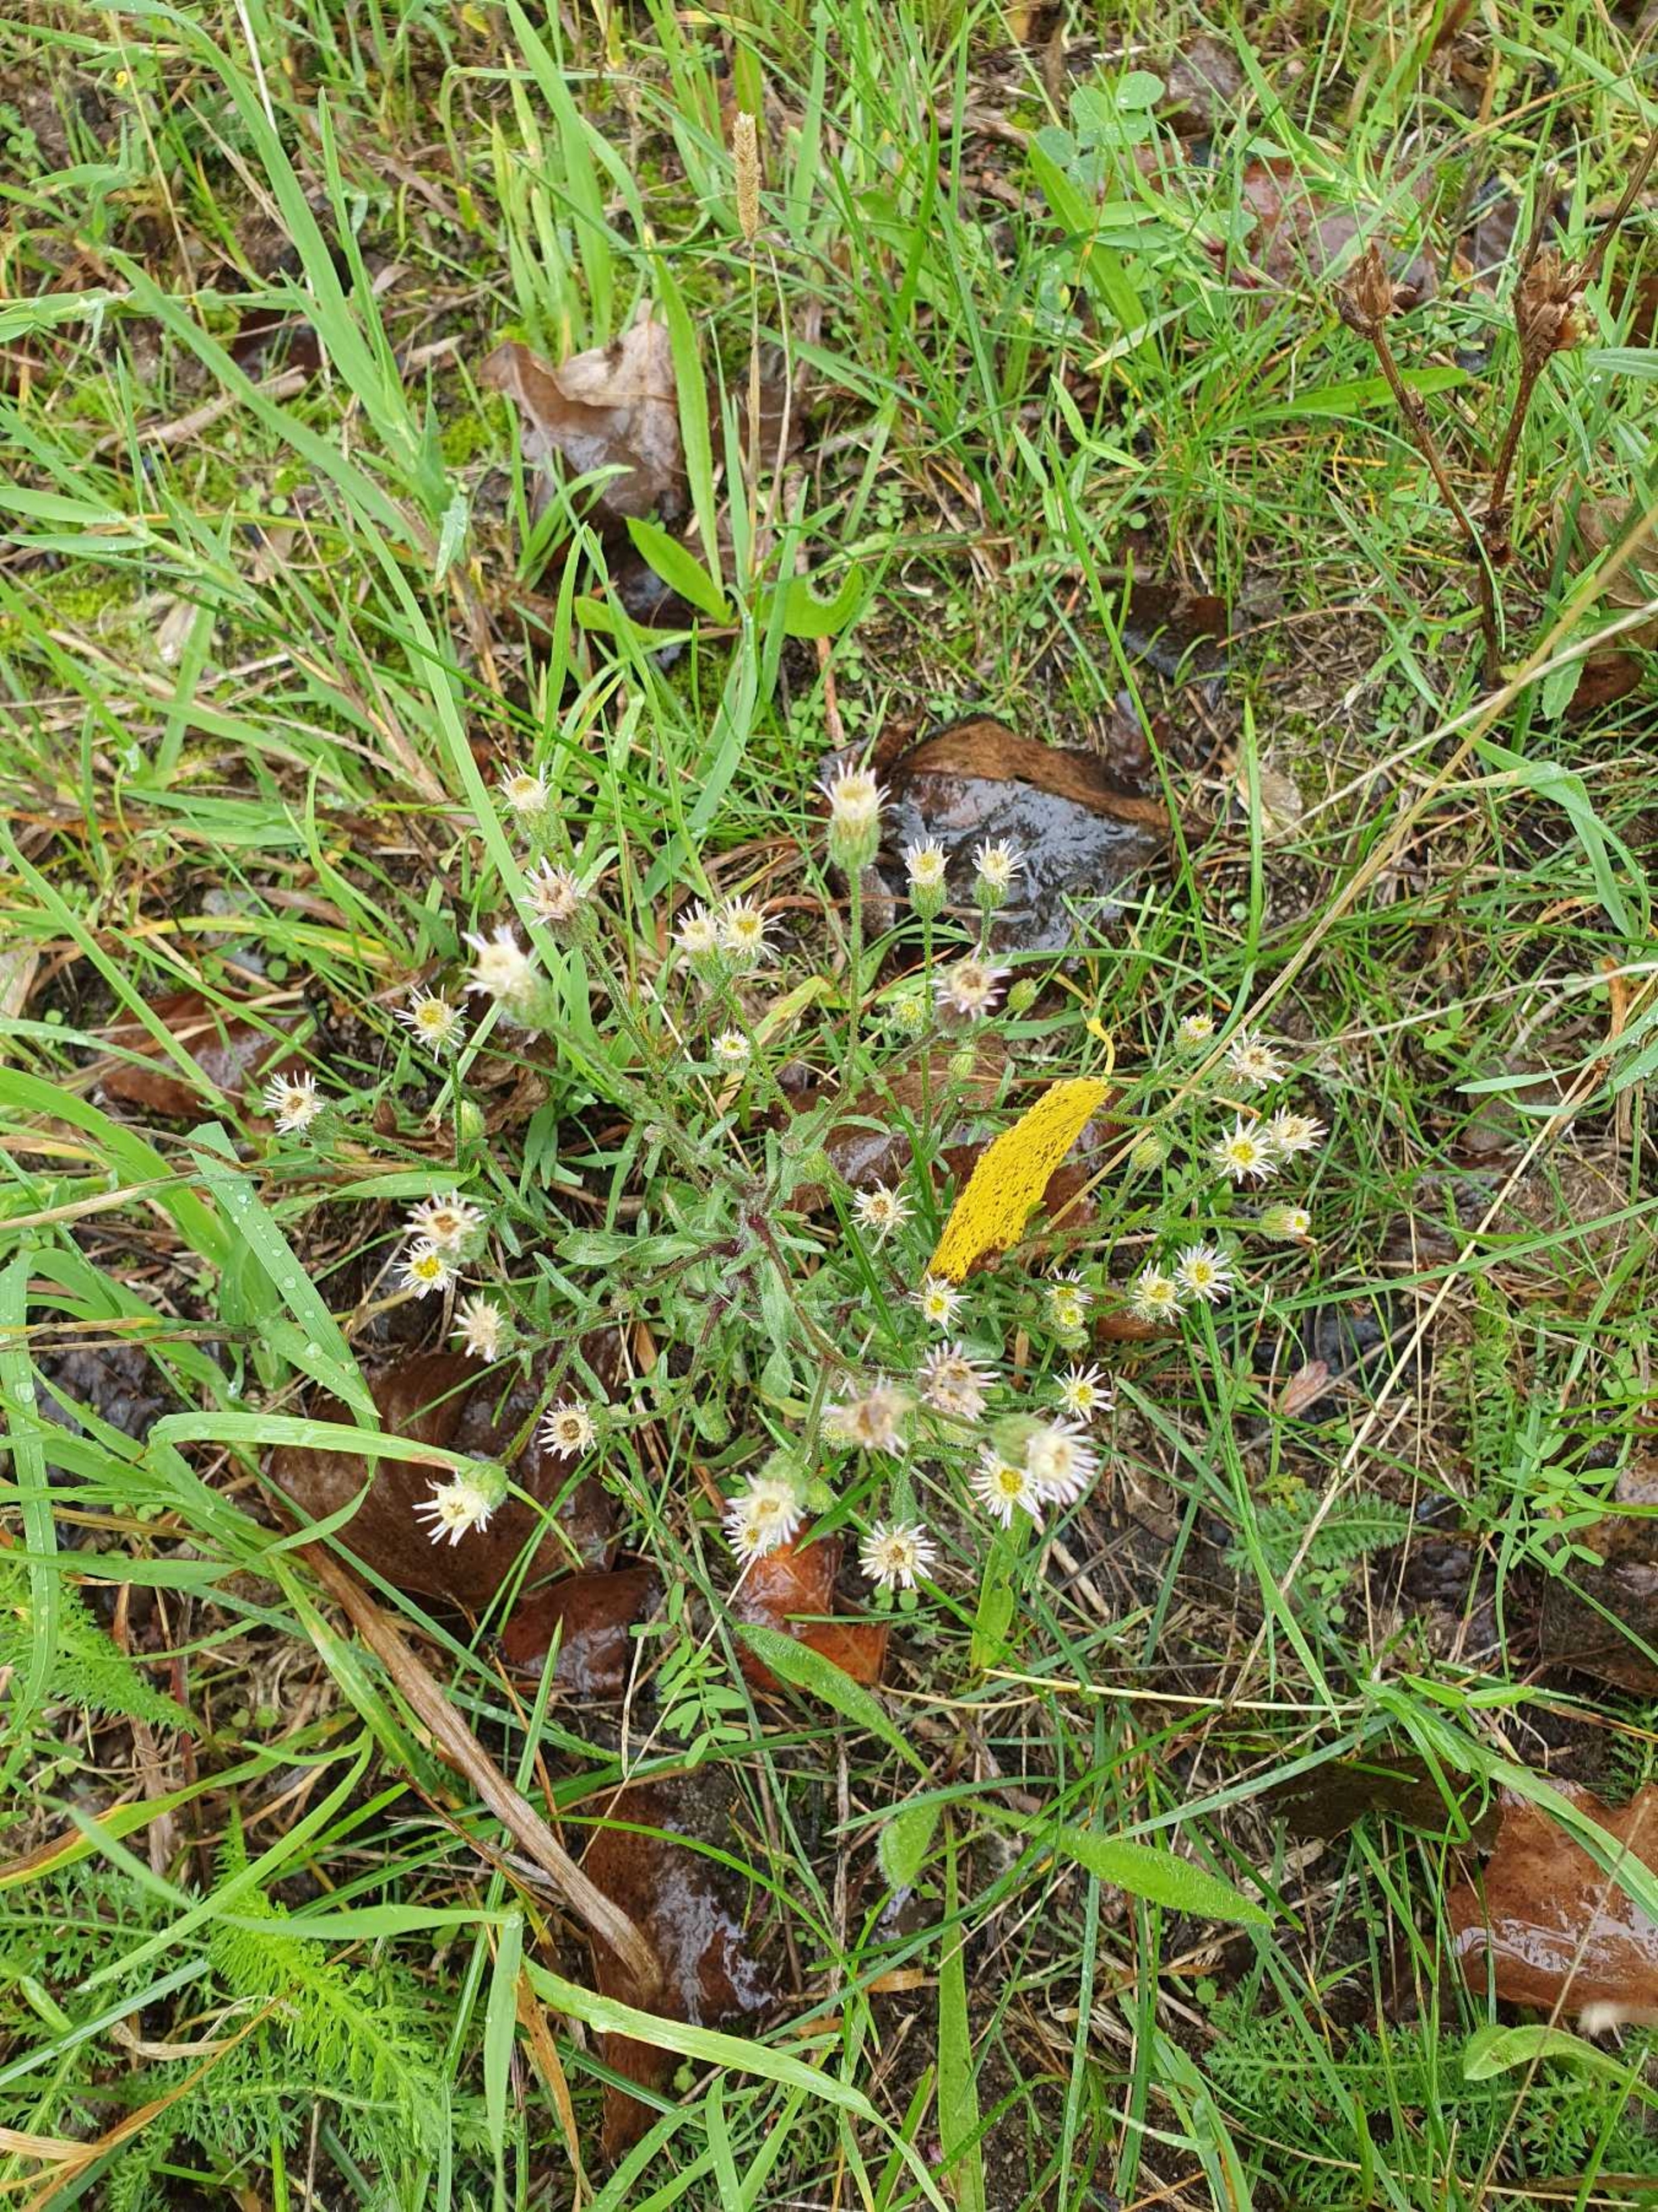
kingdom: Plantae
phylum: Tracheophyta
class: Magnoliopsida
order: Asterales
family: Asteraceae
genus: Erigeron
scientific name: Erigeron muralis
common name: Vreden bakkestjerne
